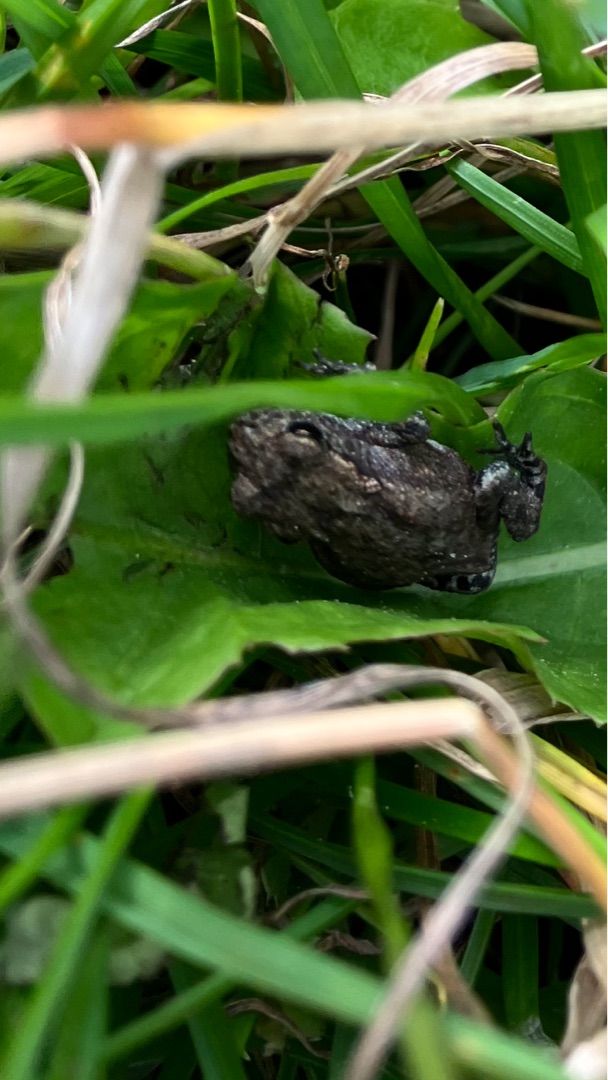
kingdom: Animalia
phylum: Chordata
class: Amphibia
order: Anura
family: Bufonidae
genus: Bufo
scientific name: Bufo bufo
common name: Skrubtudse
